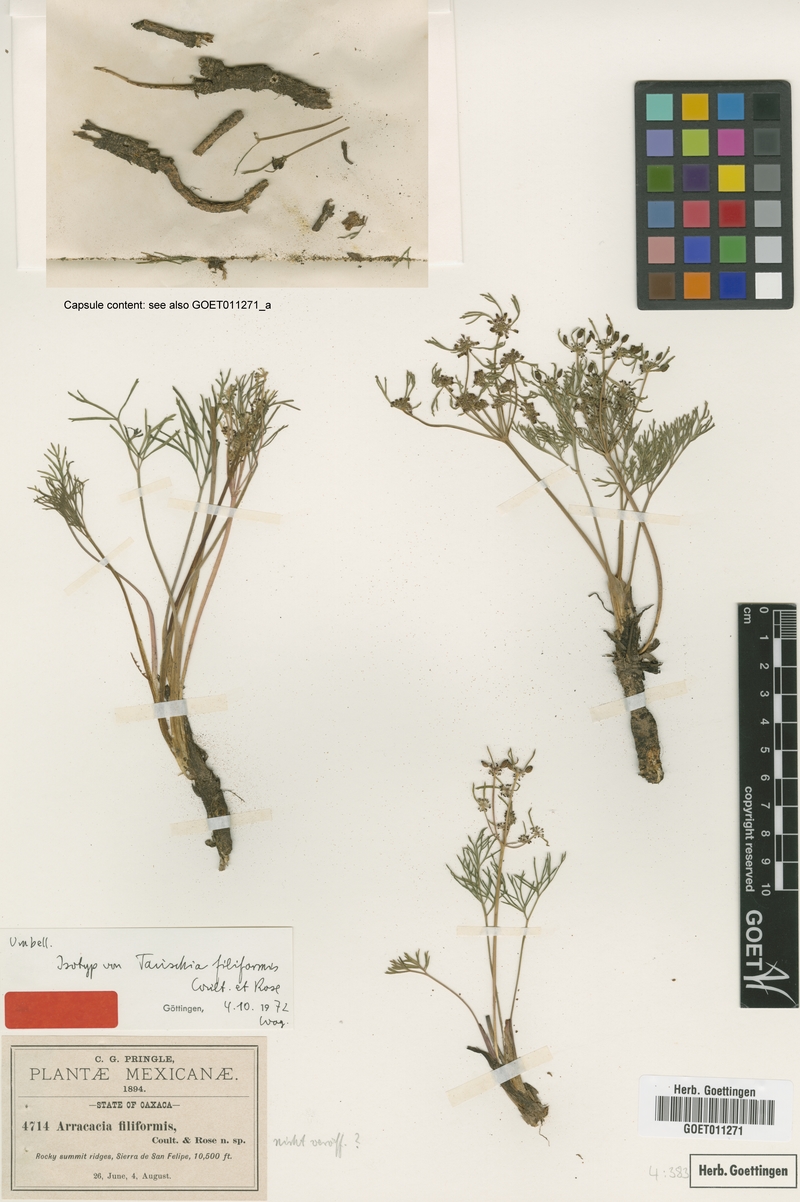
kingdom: Plantae
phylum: Tracheophyta
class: Magnoliopsida
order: Apiales
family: Apiaceae
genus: Tauschia
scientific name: Tauschia filiformis
